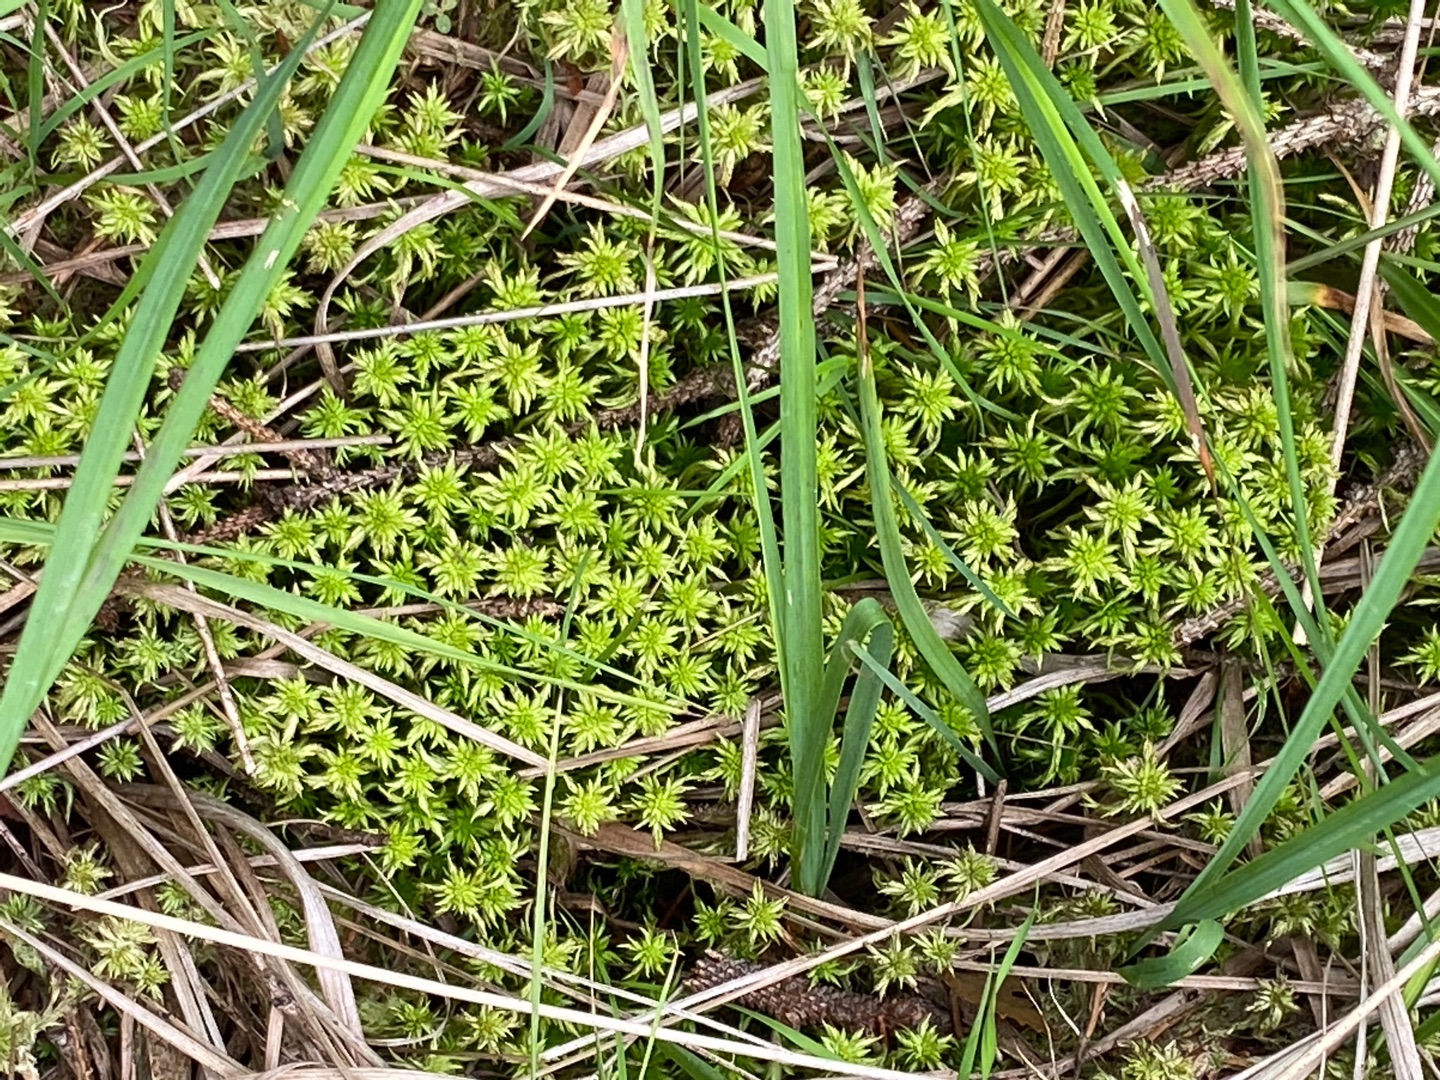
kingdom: Plantae
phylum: Bryophyta
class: Sphagnopsida
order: Sphagnales
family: Sphagnaceae
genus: Sphagnum
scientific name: Sphagnum
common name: Tørvemosslægten
